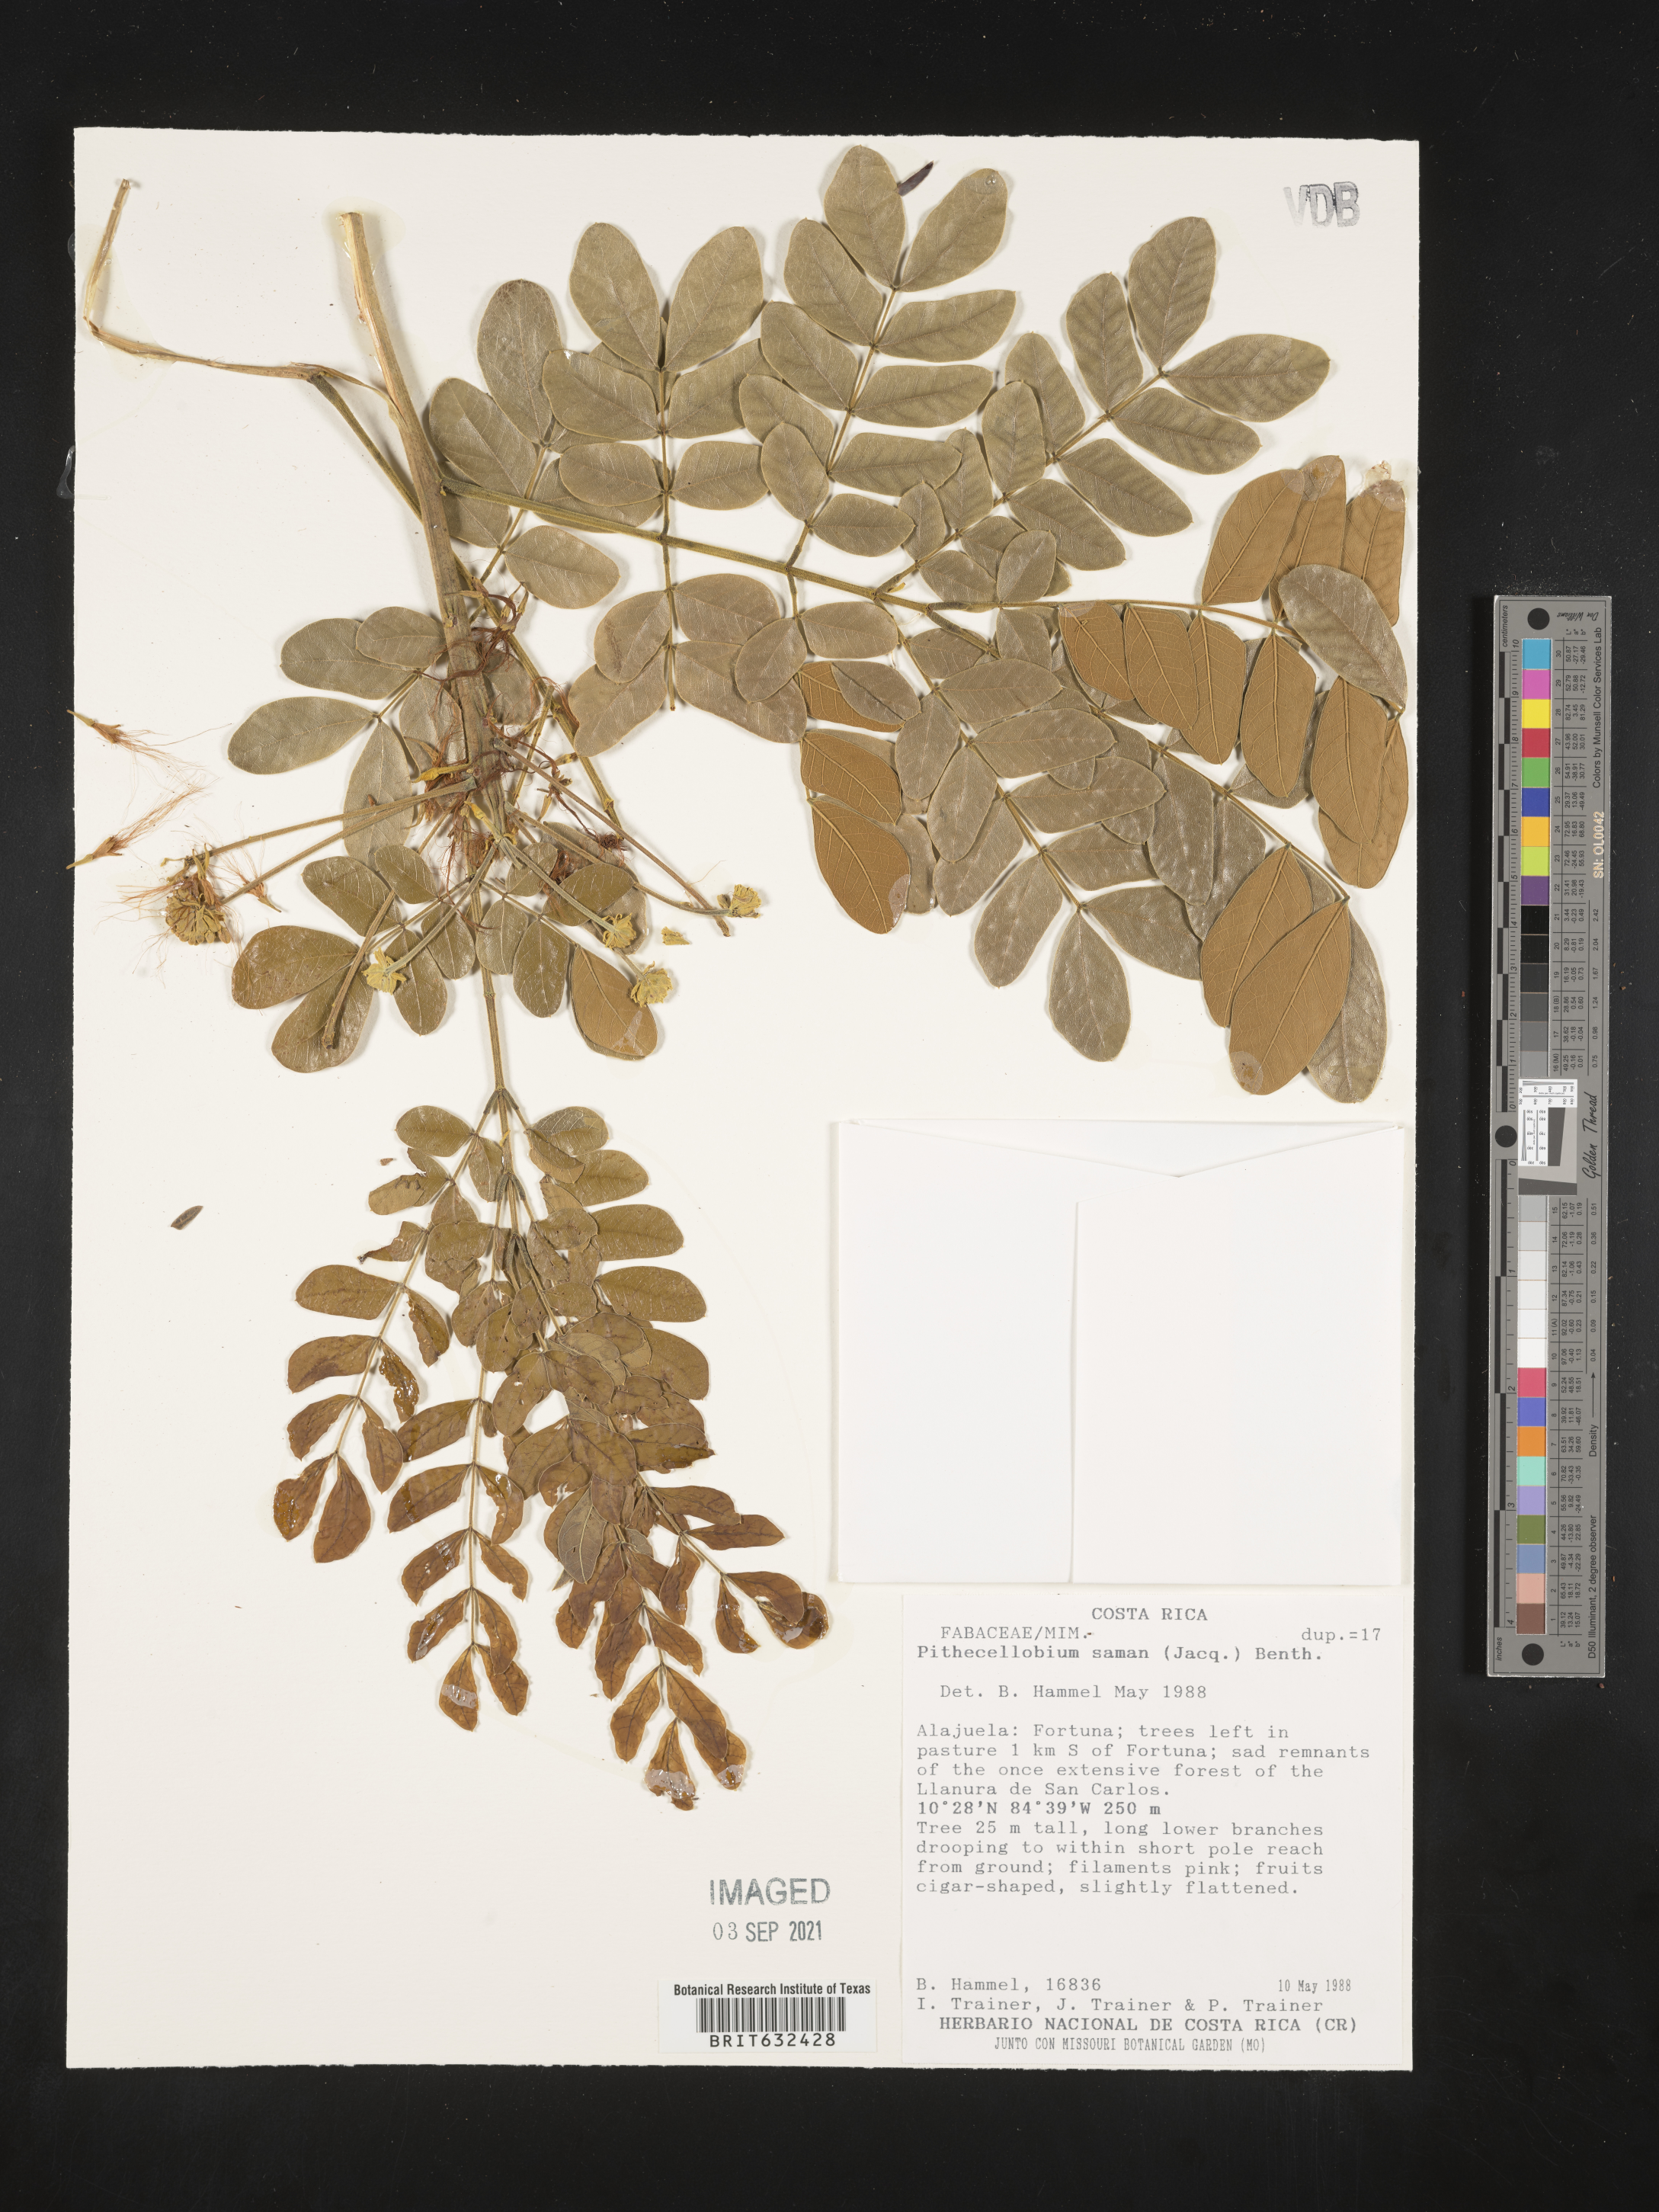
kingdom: Plantae
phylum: Tracheophyta
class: Magnoliopsida
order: Fabales
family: Fabaceae
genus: Pithecellobium
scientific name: Pithecellobium
